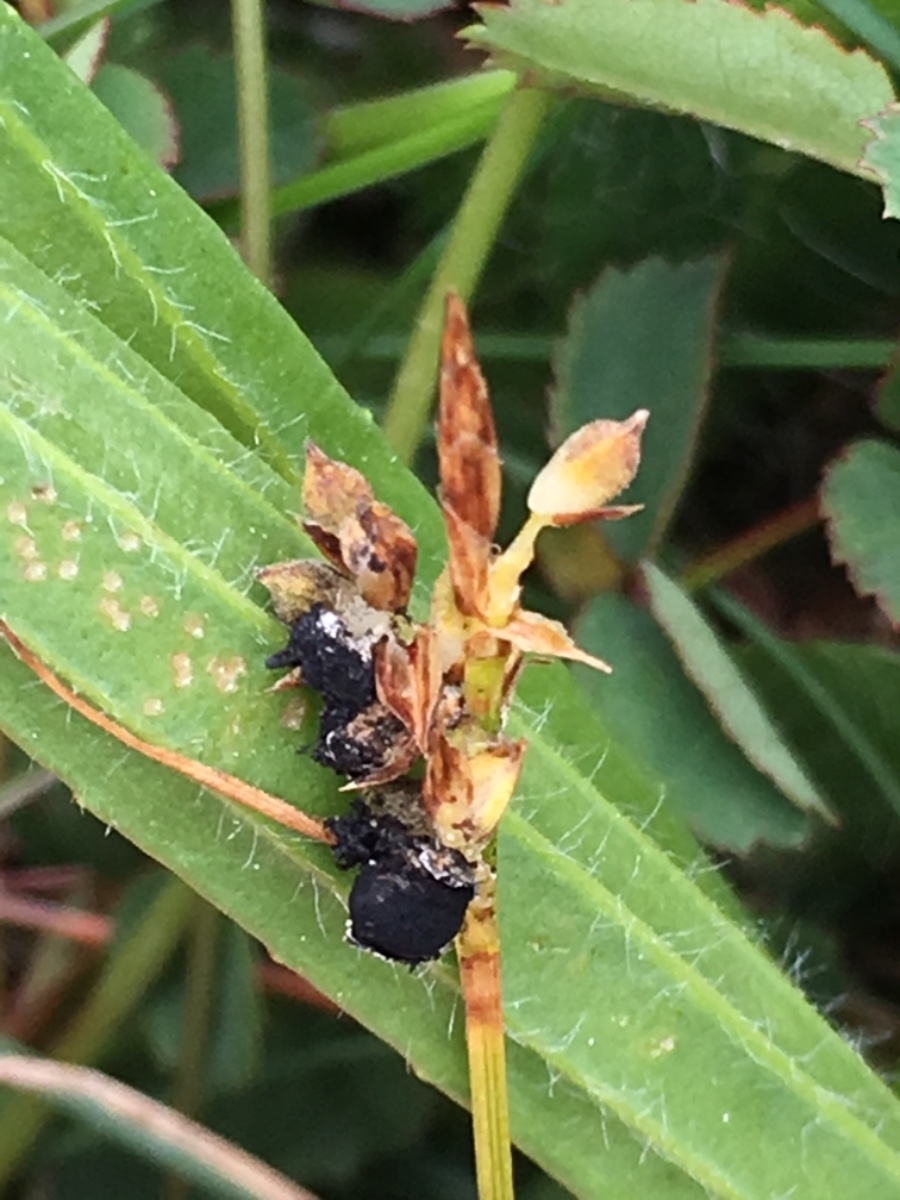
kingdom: Fungi
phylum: Basidiomycota
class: Ustilaginomycetes
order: Ustilaginales
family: Anthracoideaceae
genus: Anthracoidea
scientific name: Anthracoidea caricis
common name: star-brand
